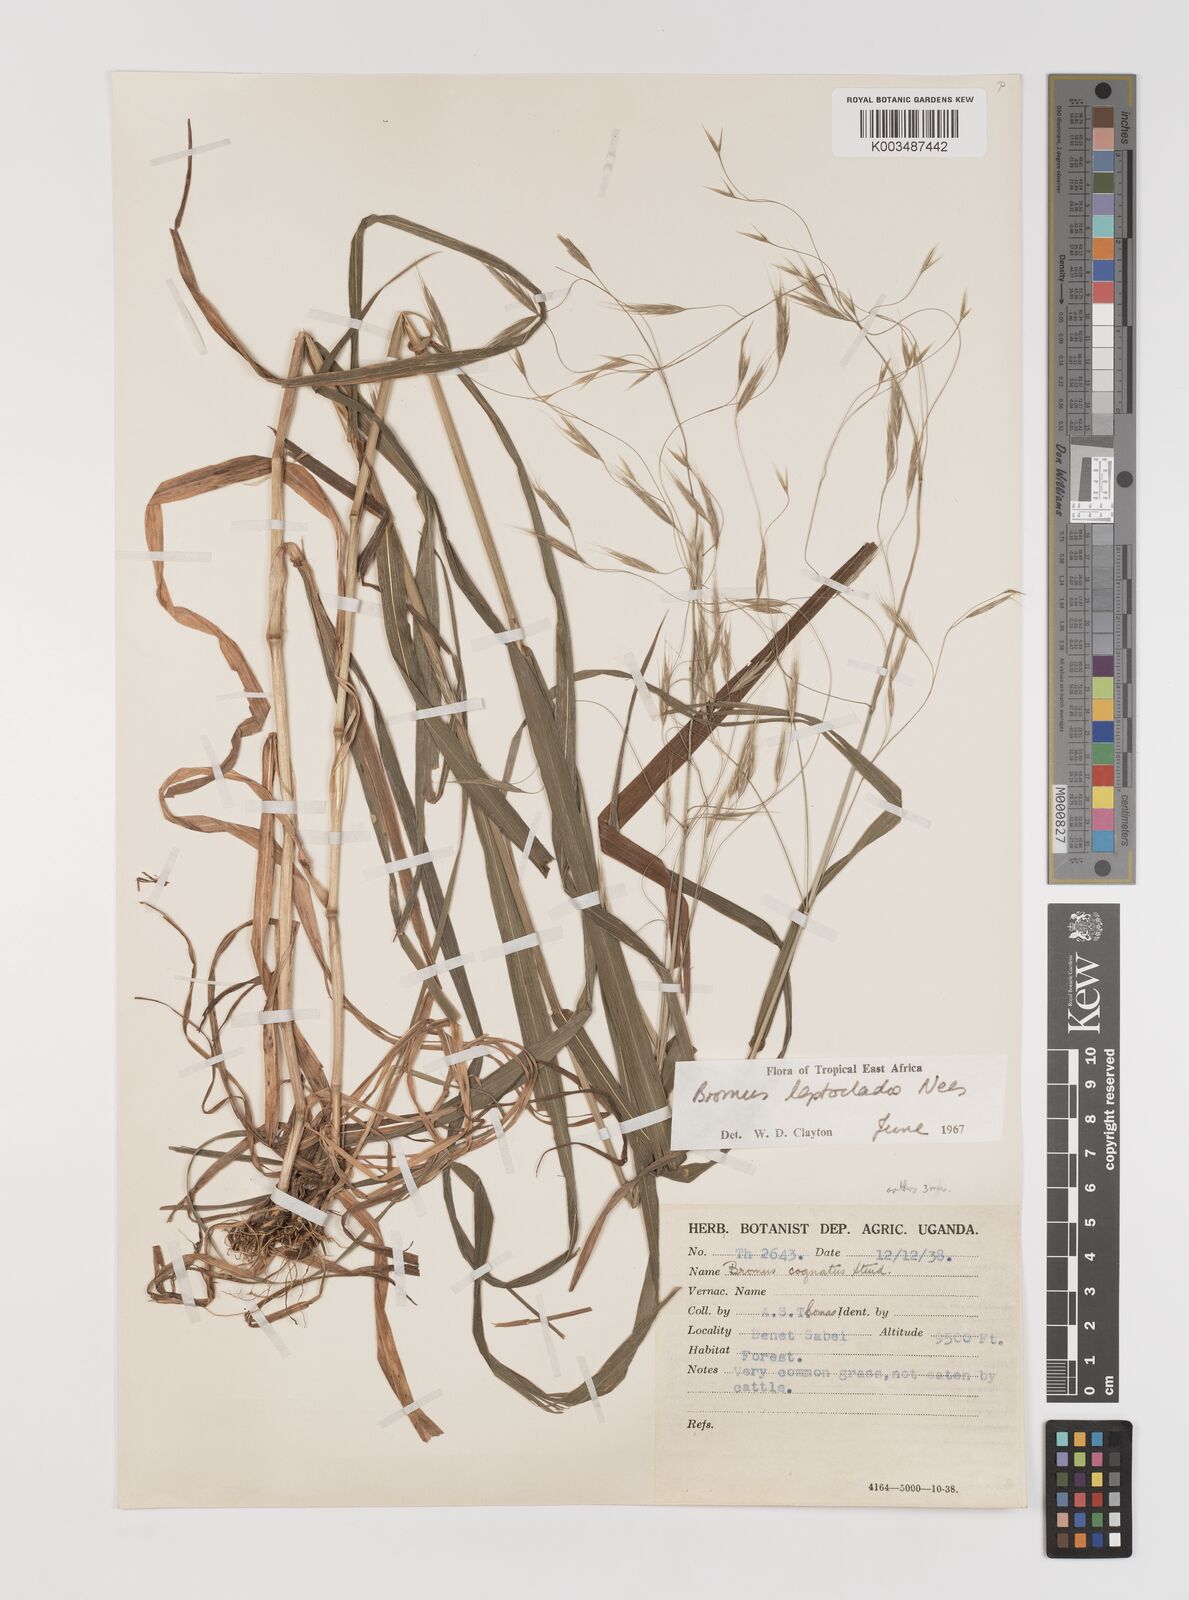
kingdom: Plantae
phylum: Tracheophyta
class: Liliopsida
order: Poales
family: Poaceae
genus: Bromus
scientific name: Bromus leptoclados
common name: Mountain bromegrass
